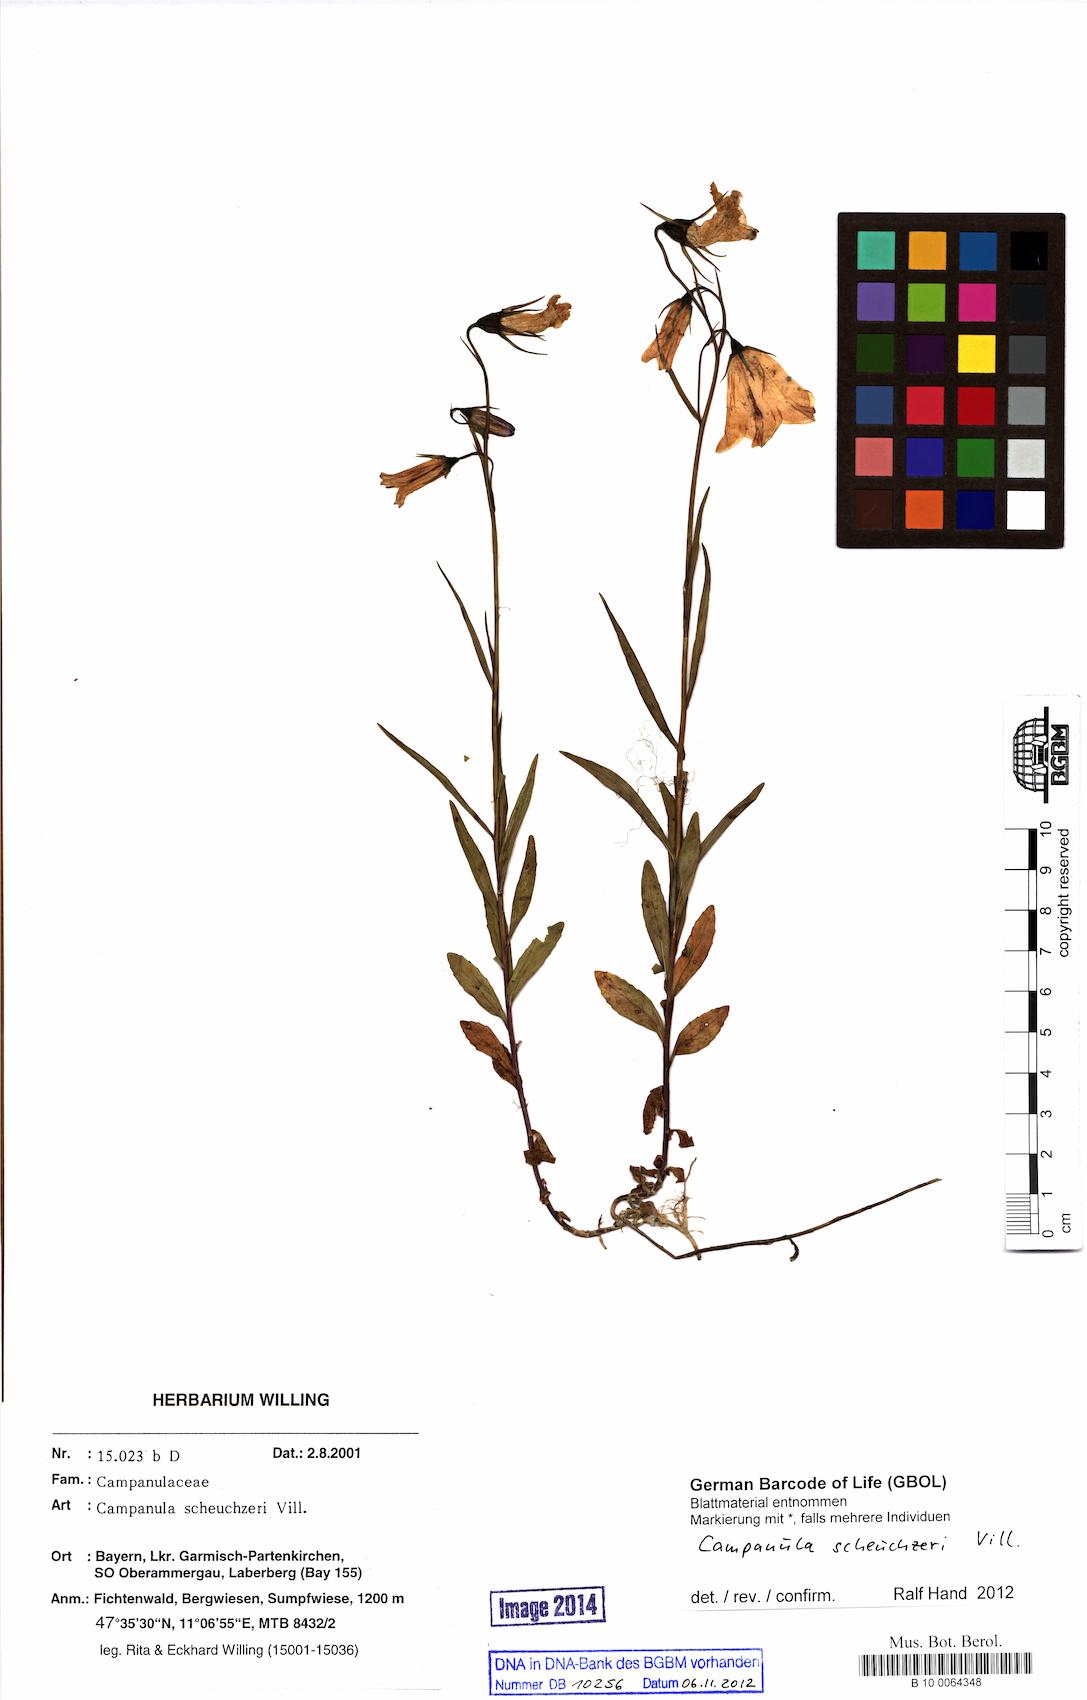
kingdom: Plantae
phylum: Tracheophyta
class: Magnoliopsida
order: Asterales
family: Campanulaceae
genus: Campanula
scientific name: Campanula scheuchzeri
